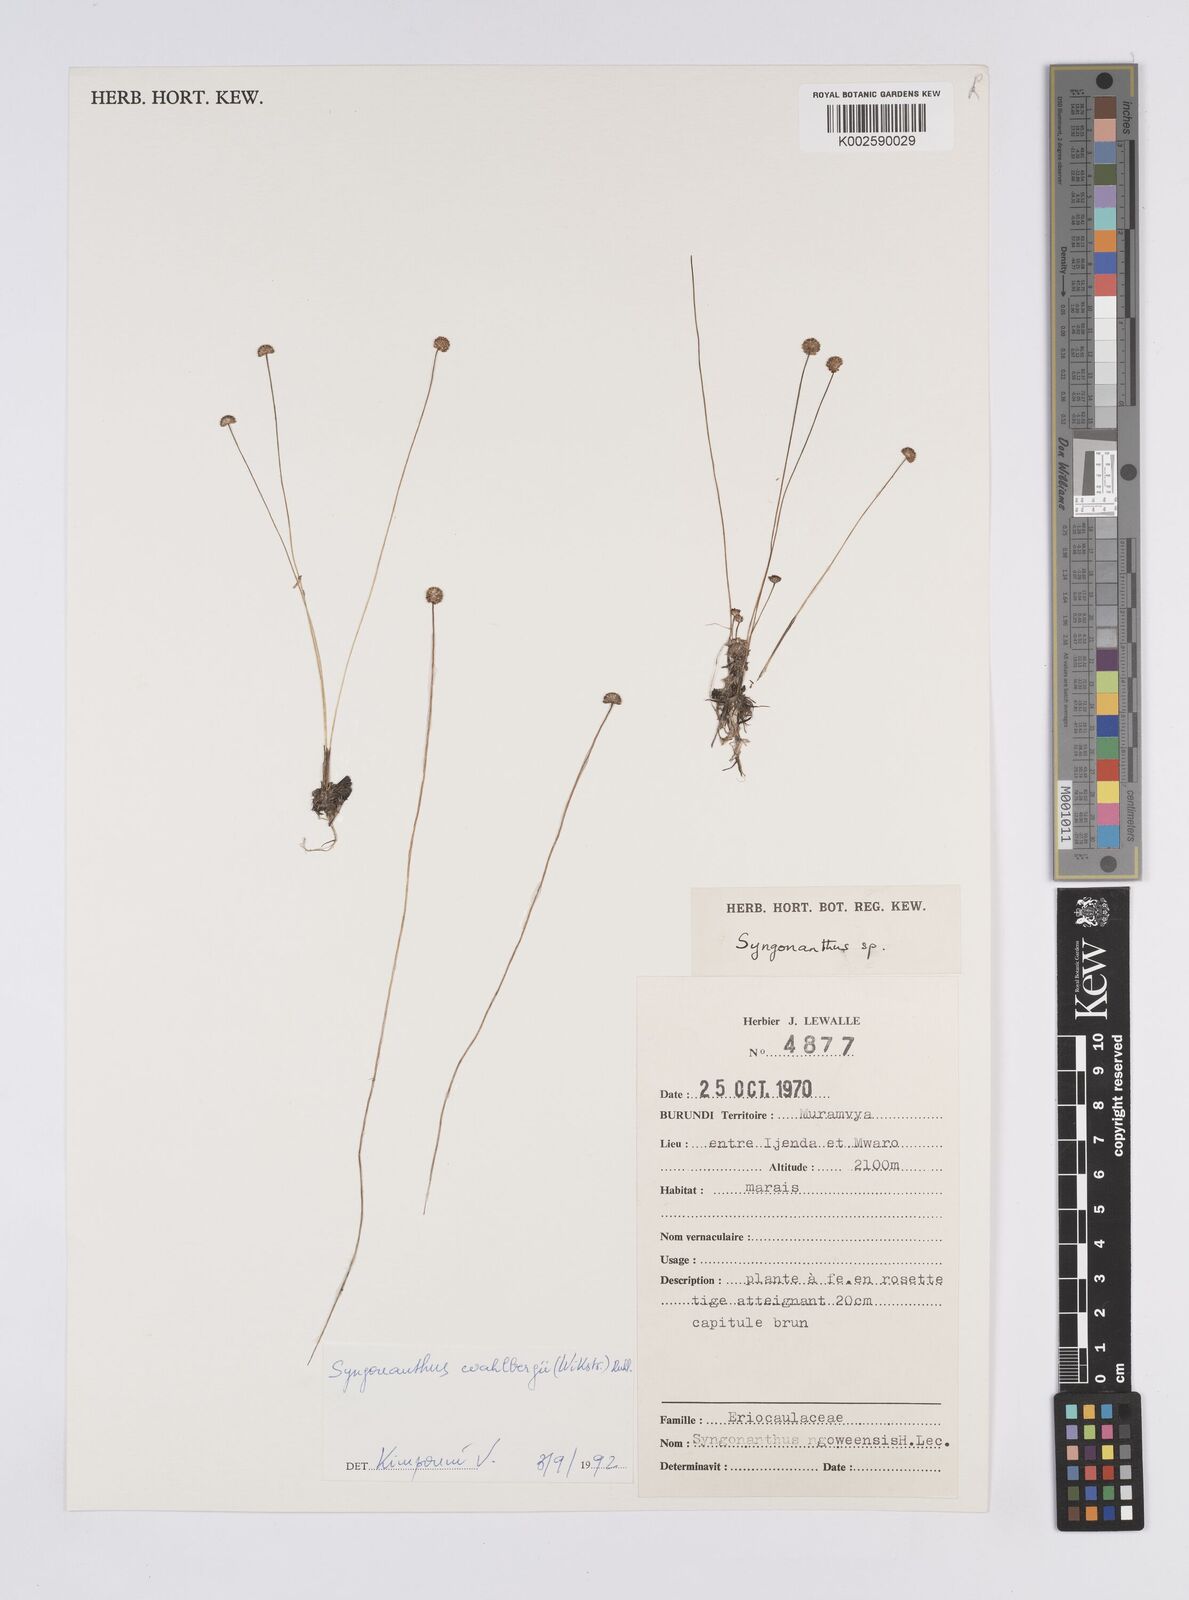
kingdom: Plantae
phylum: Tracheophyta
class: Liliopsida
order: Poales
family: Eriocaulaceae
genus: Syngonanthus
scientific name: Syngonanthus wahlbergii
